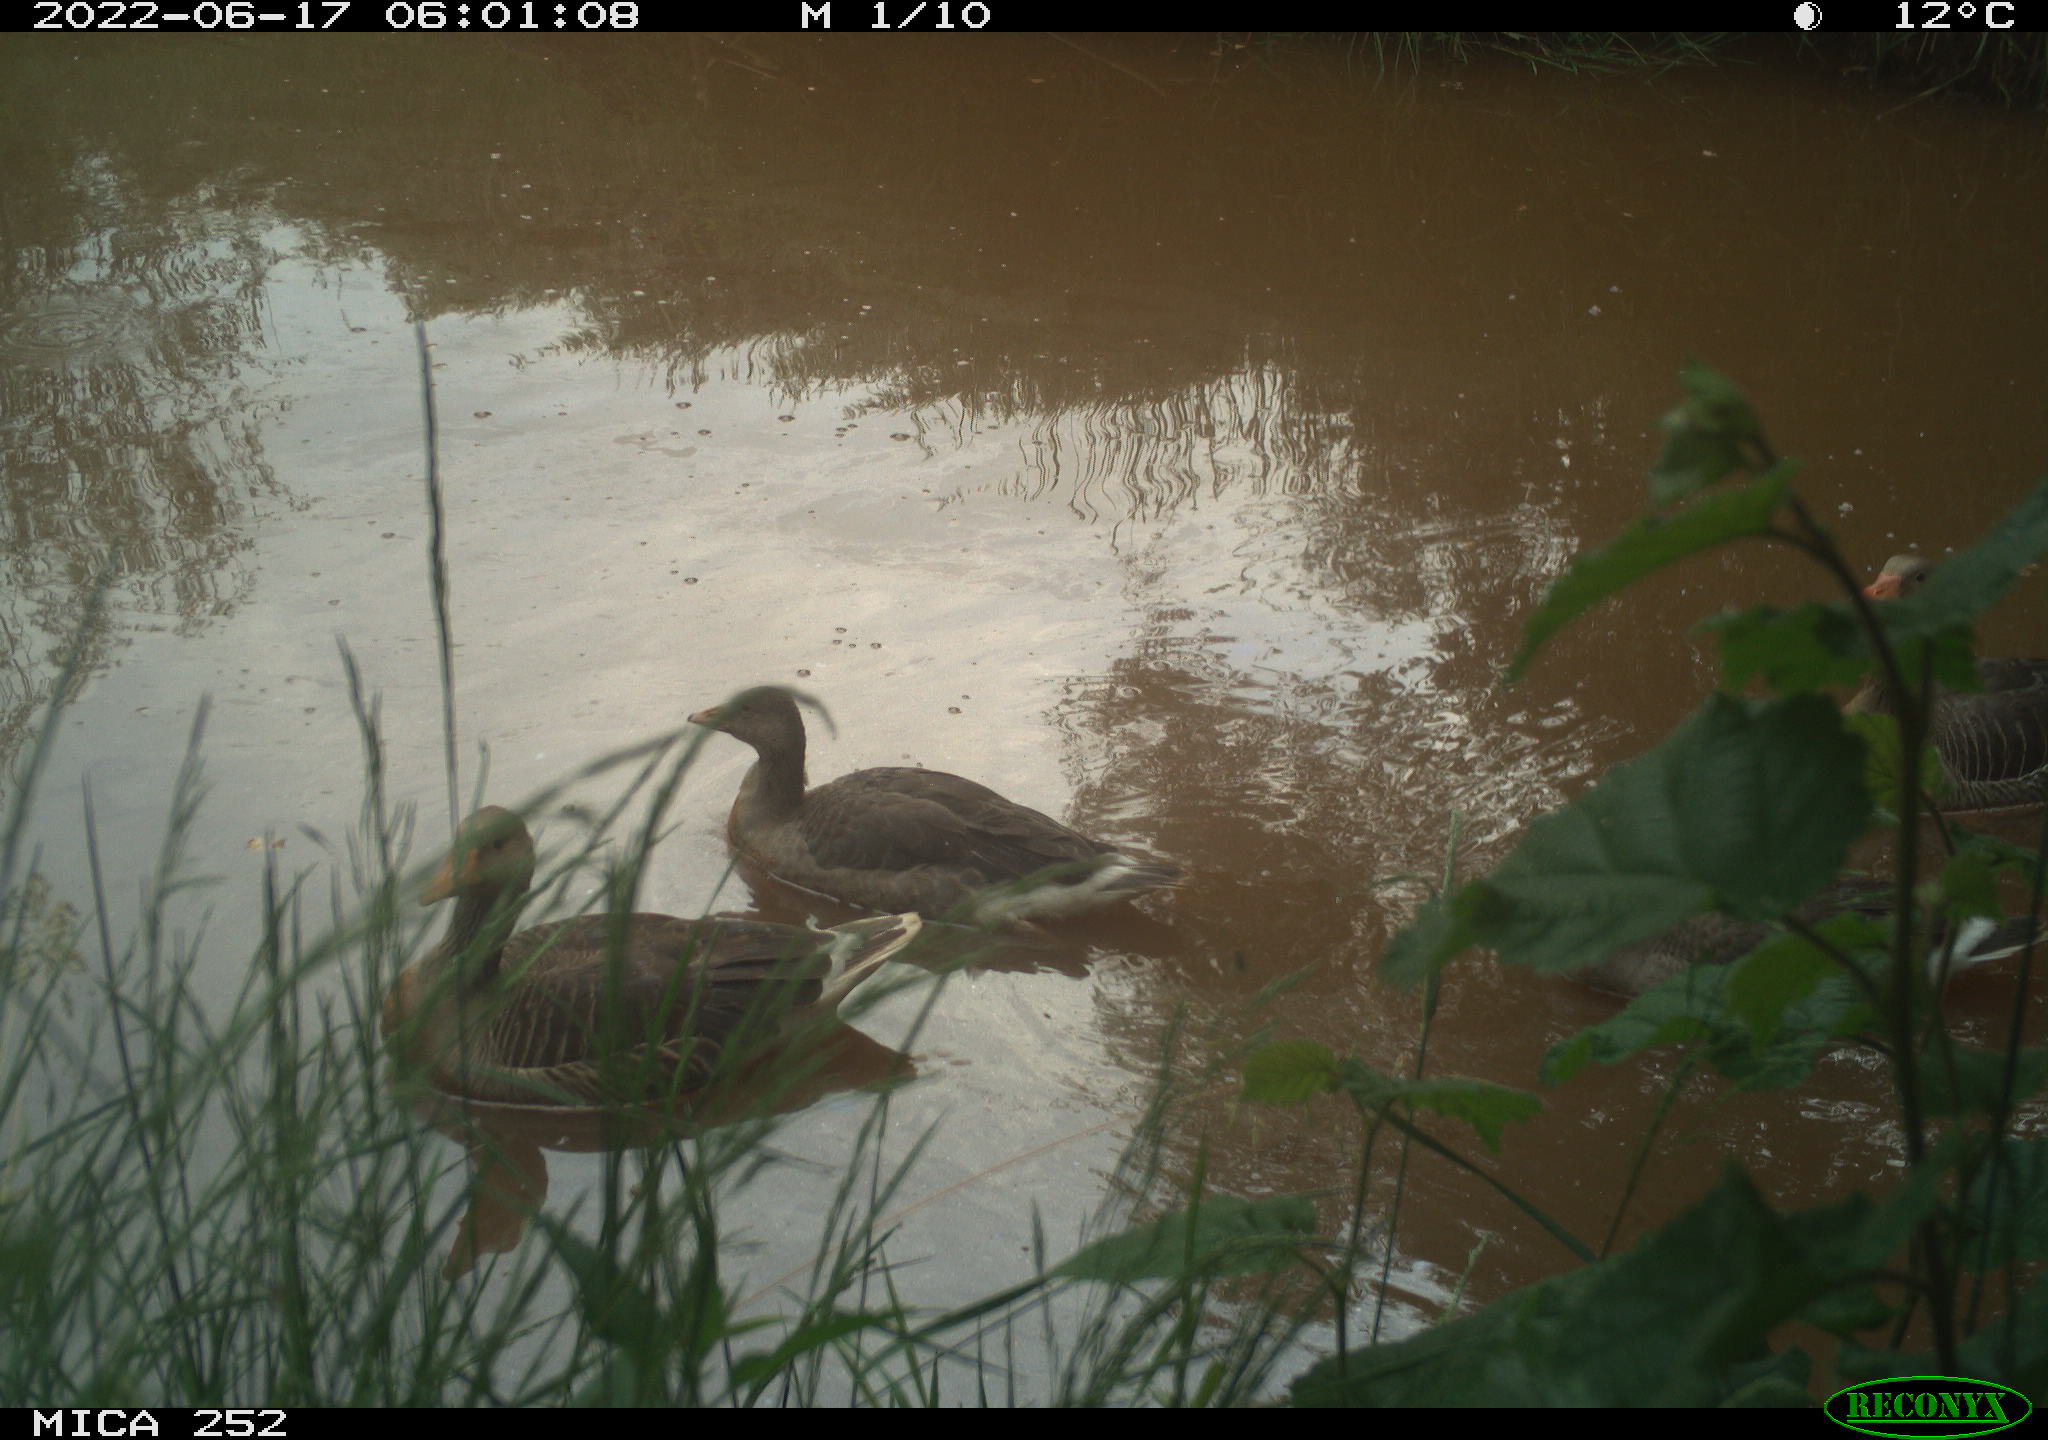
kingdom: Animalia
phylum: Chordata
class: Aves
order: Anseriformes
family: Anatidae
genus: Anser
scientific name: Anser
